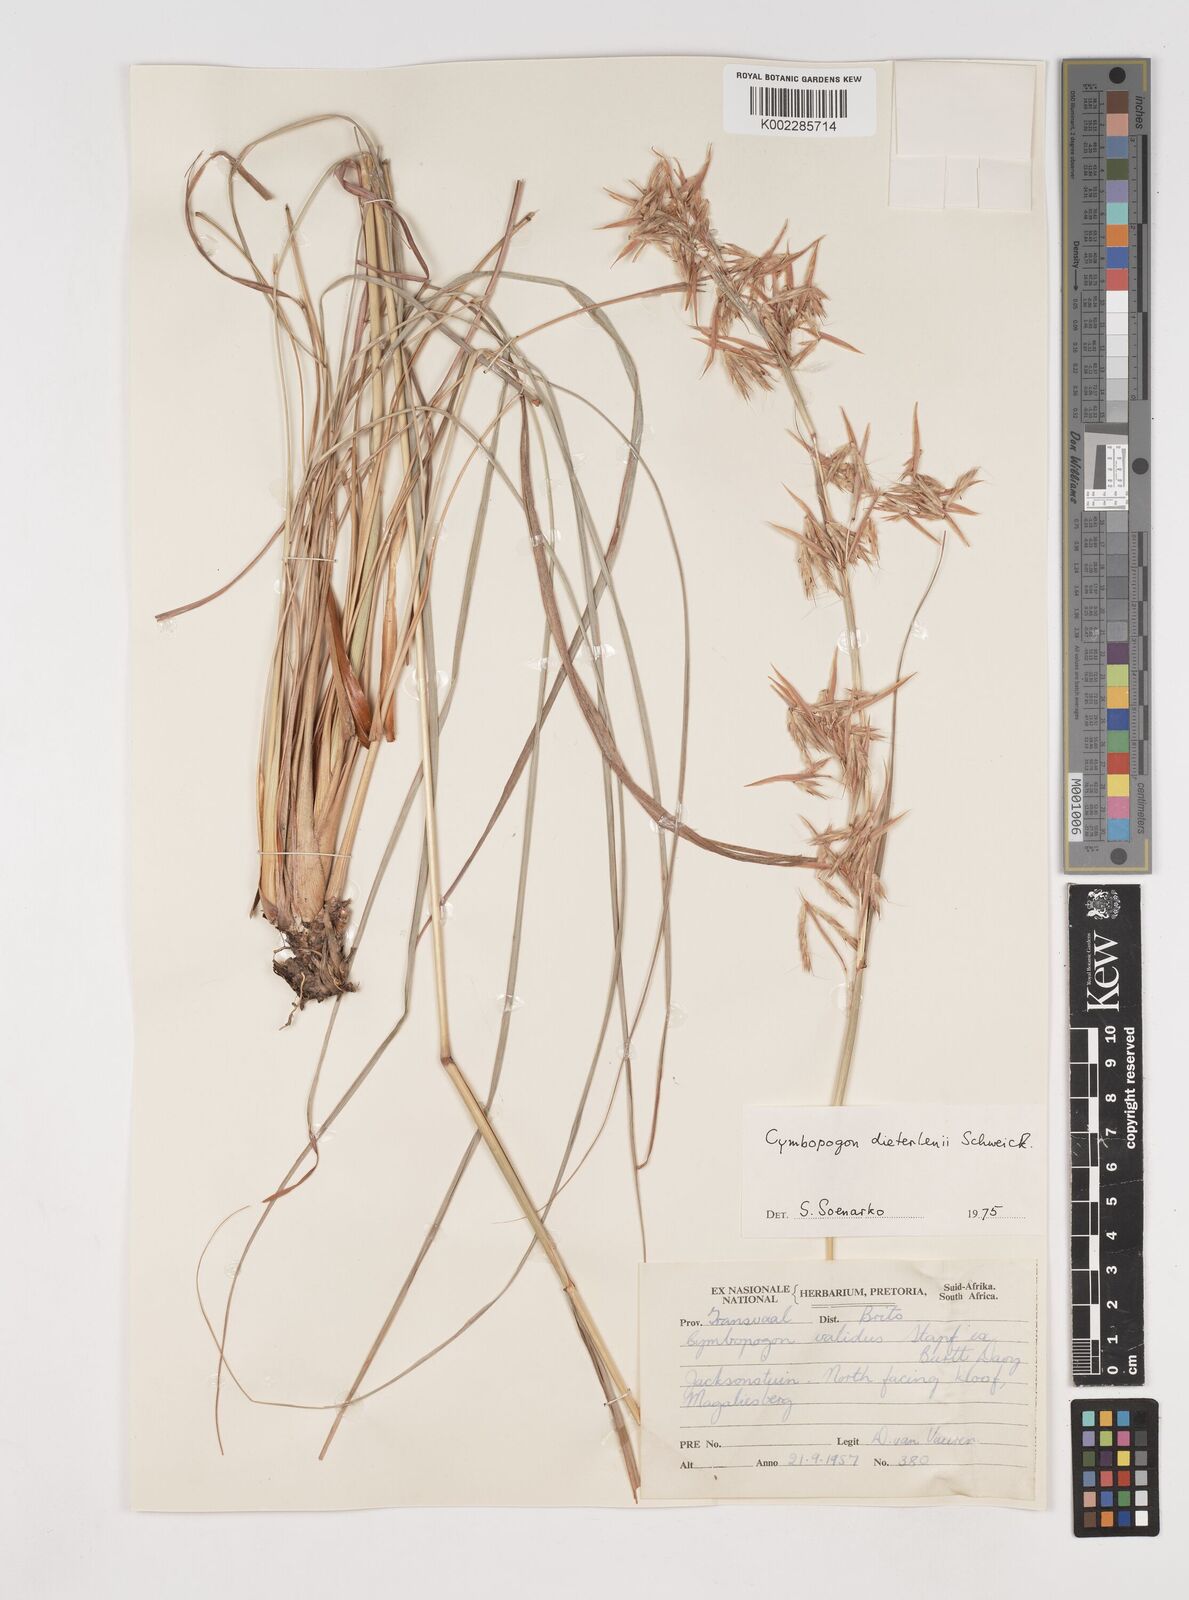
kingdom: Plantae
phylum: Tracheophyta
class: Liliopsida
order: Poales
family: Poaceae
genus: Cymbopogon
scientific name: Cymbopogon dieterlenii
